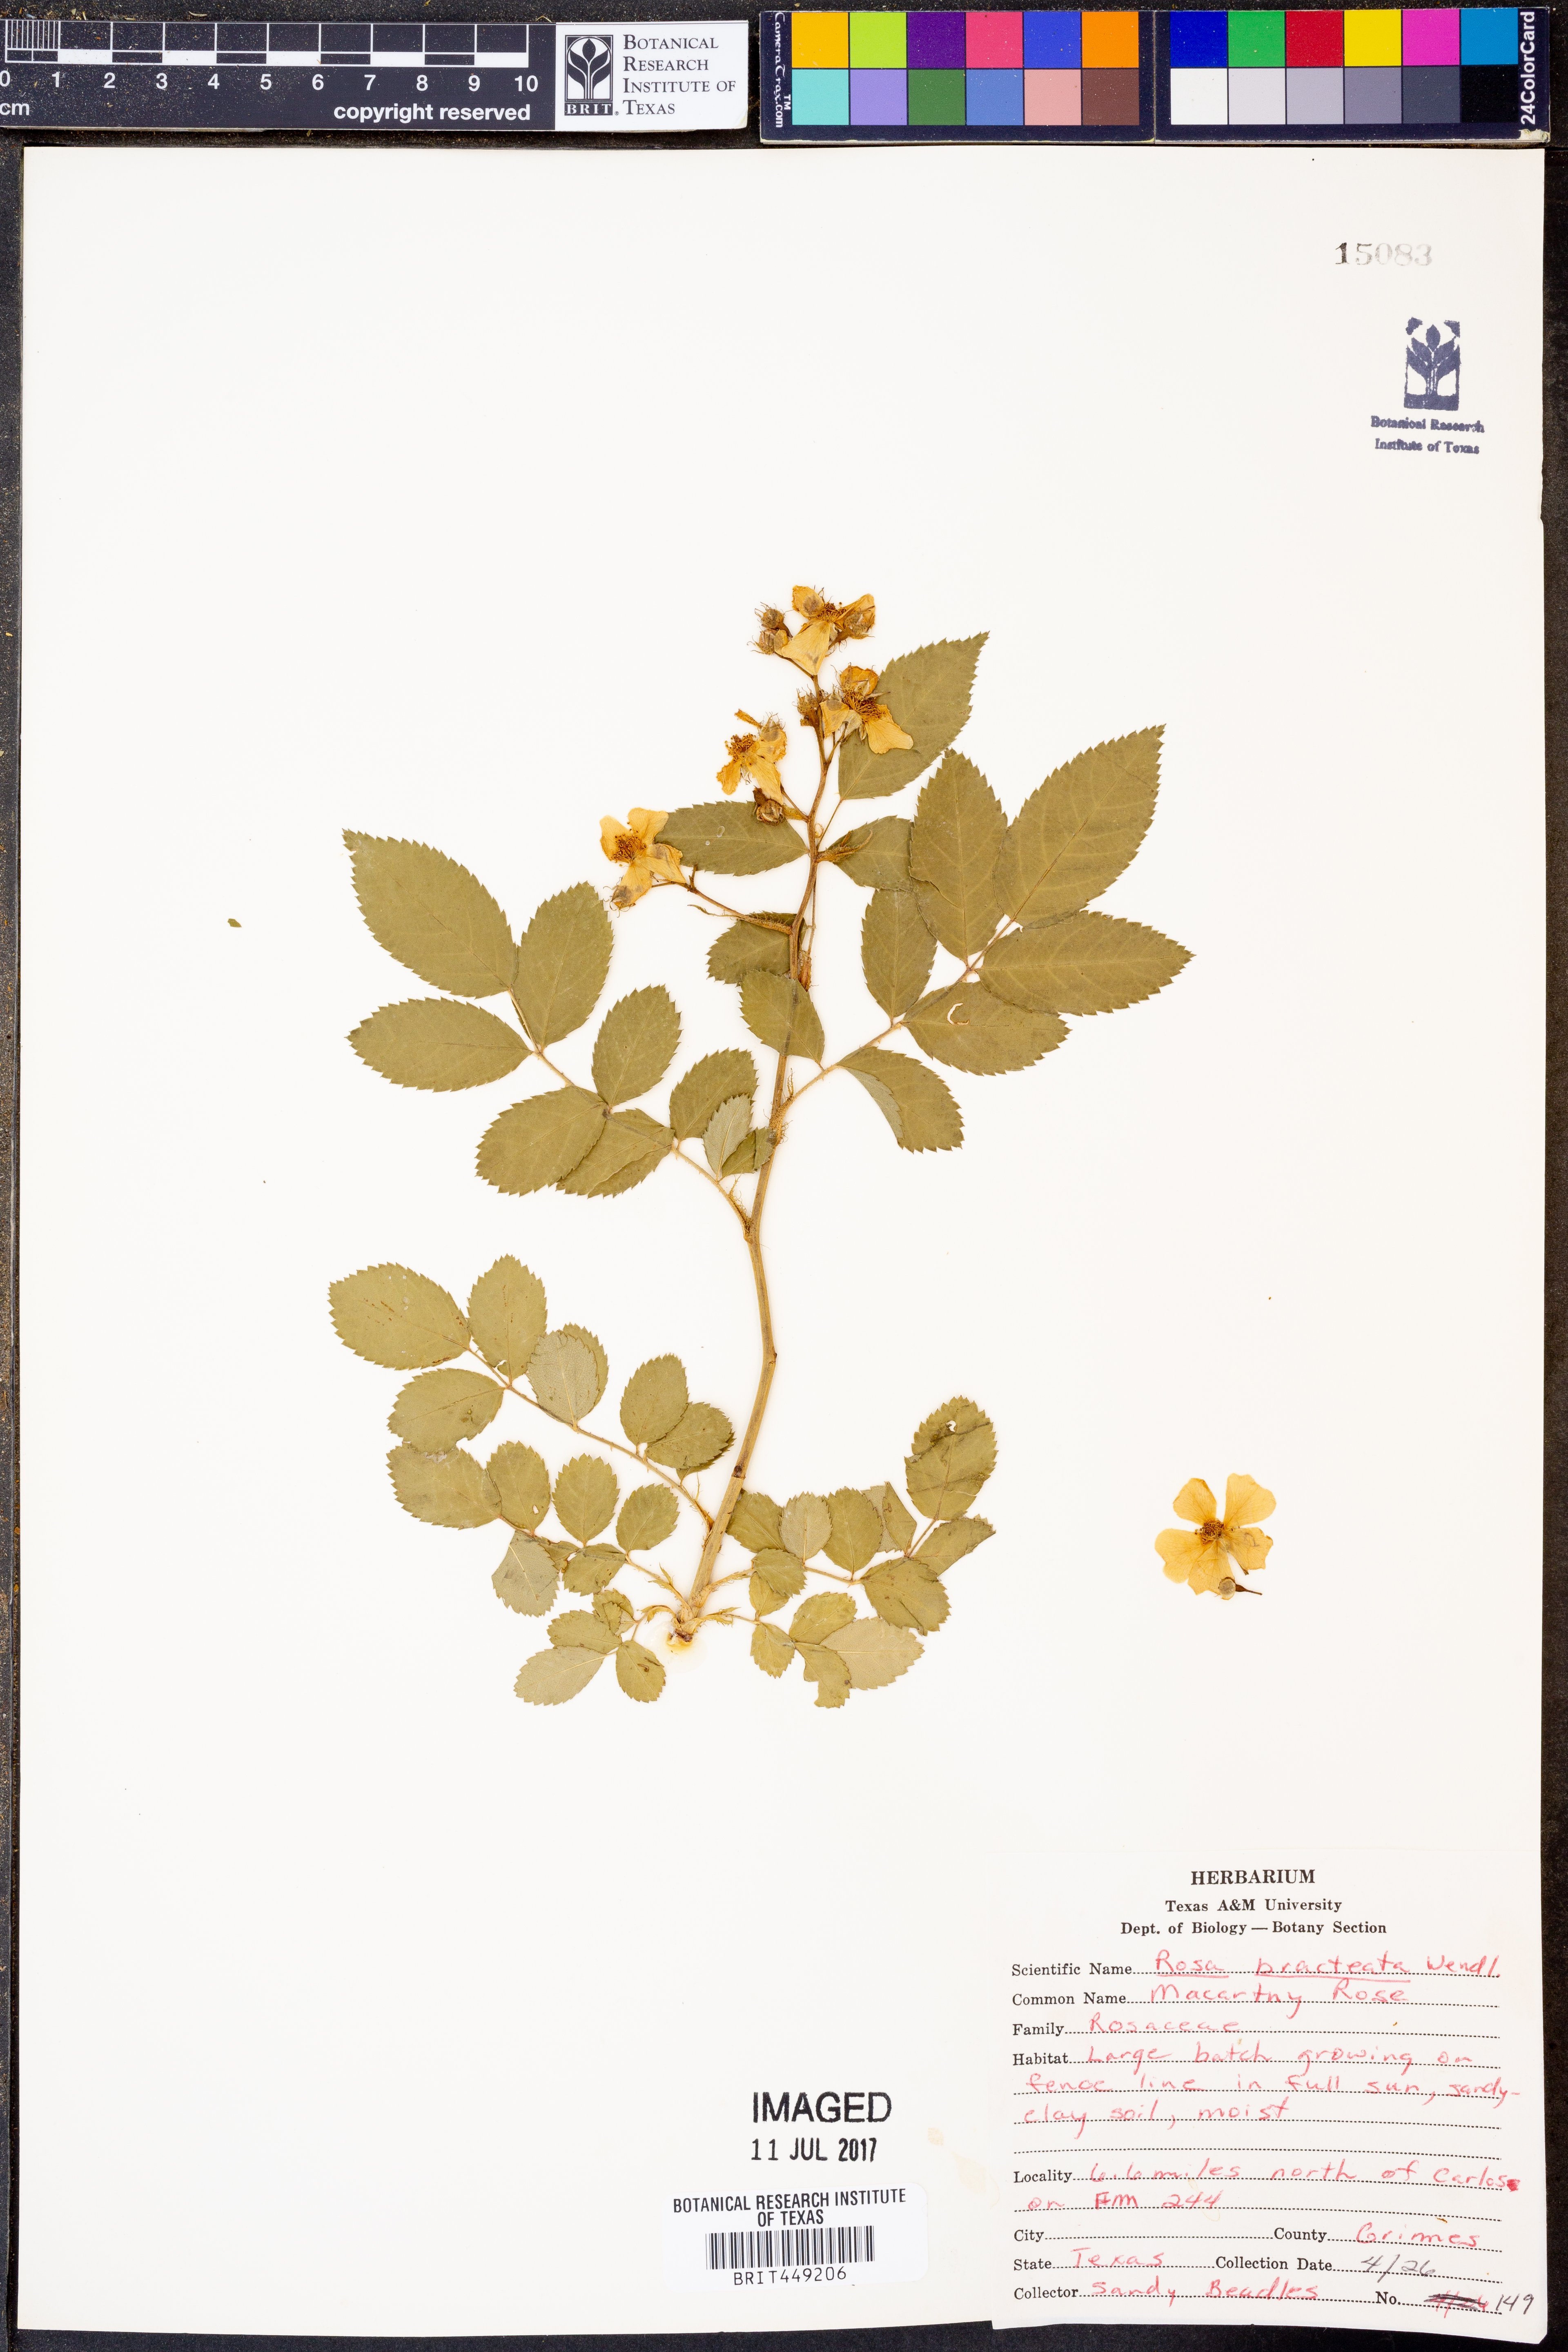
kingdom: Plantae
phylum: Tracheophyta
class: Magnoliopsida
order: Rosales
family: Rosaceae
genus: Rosa
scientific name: Rosa bracteata
